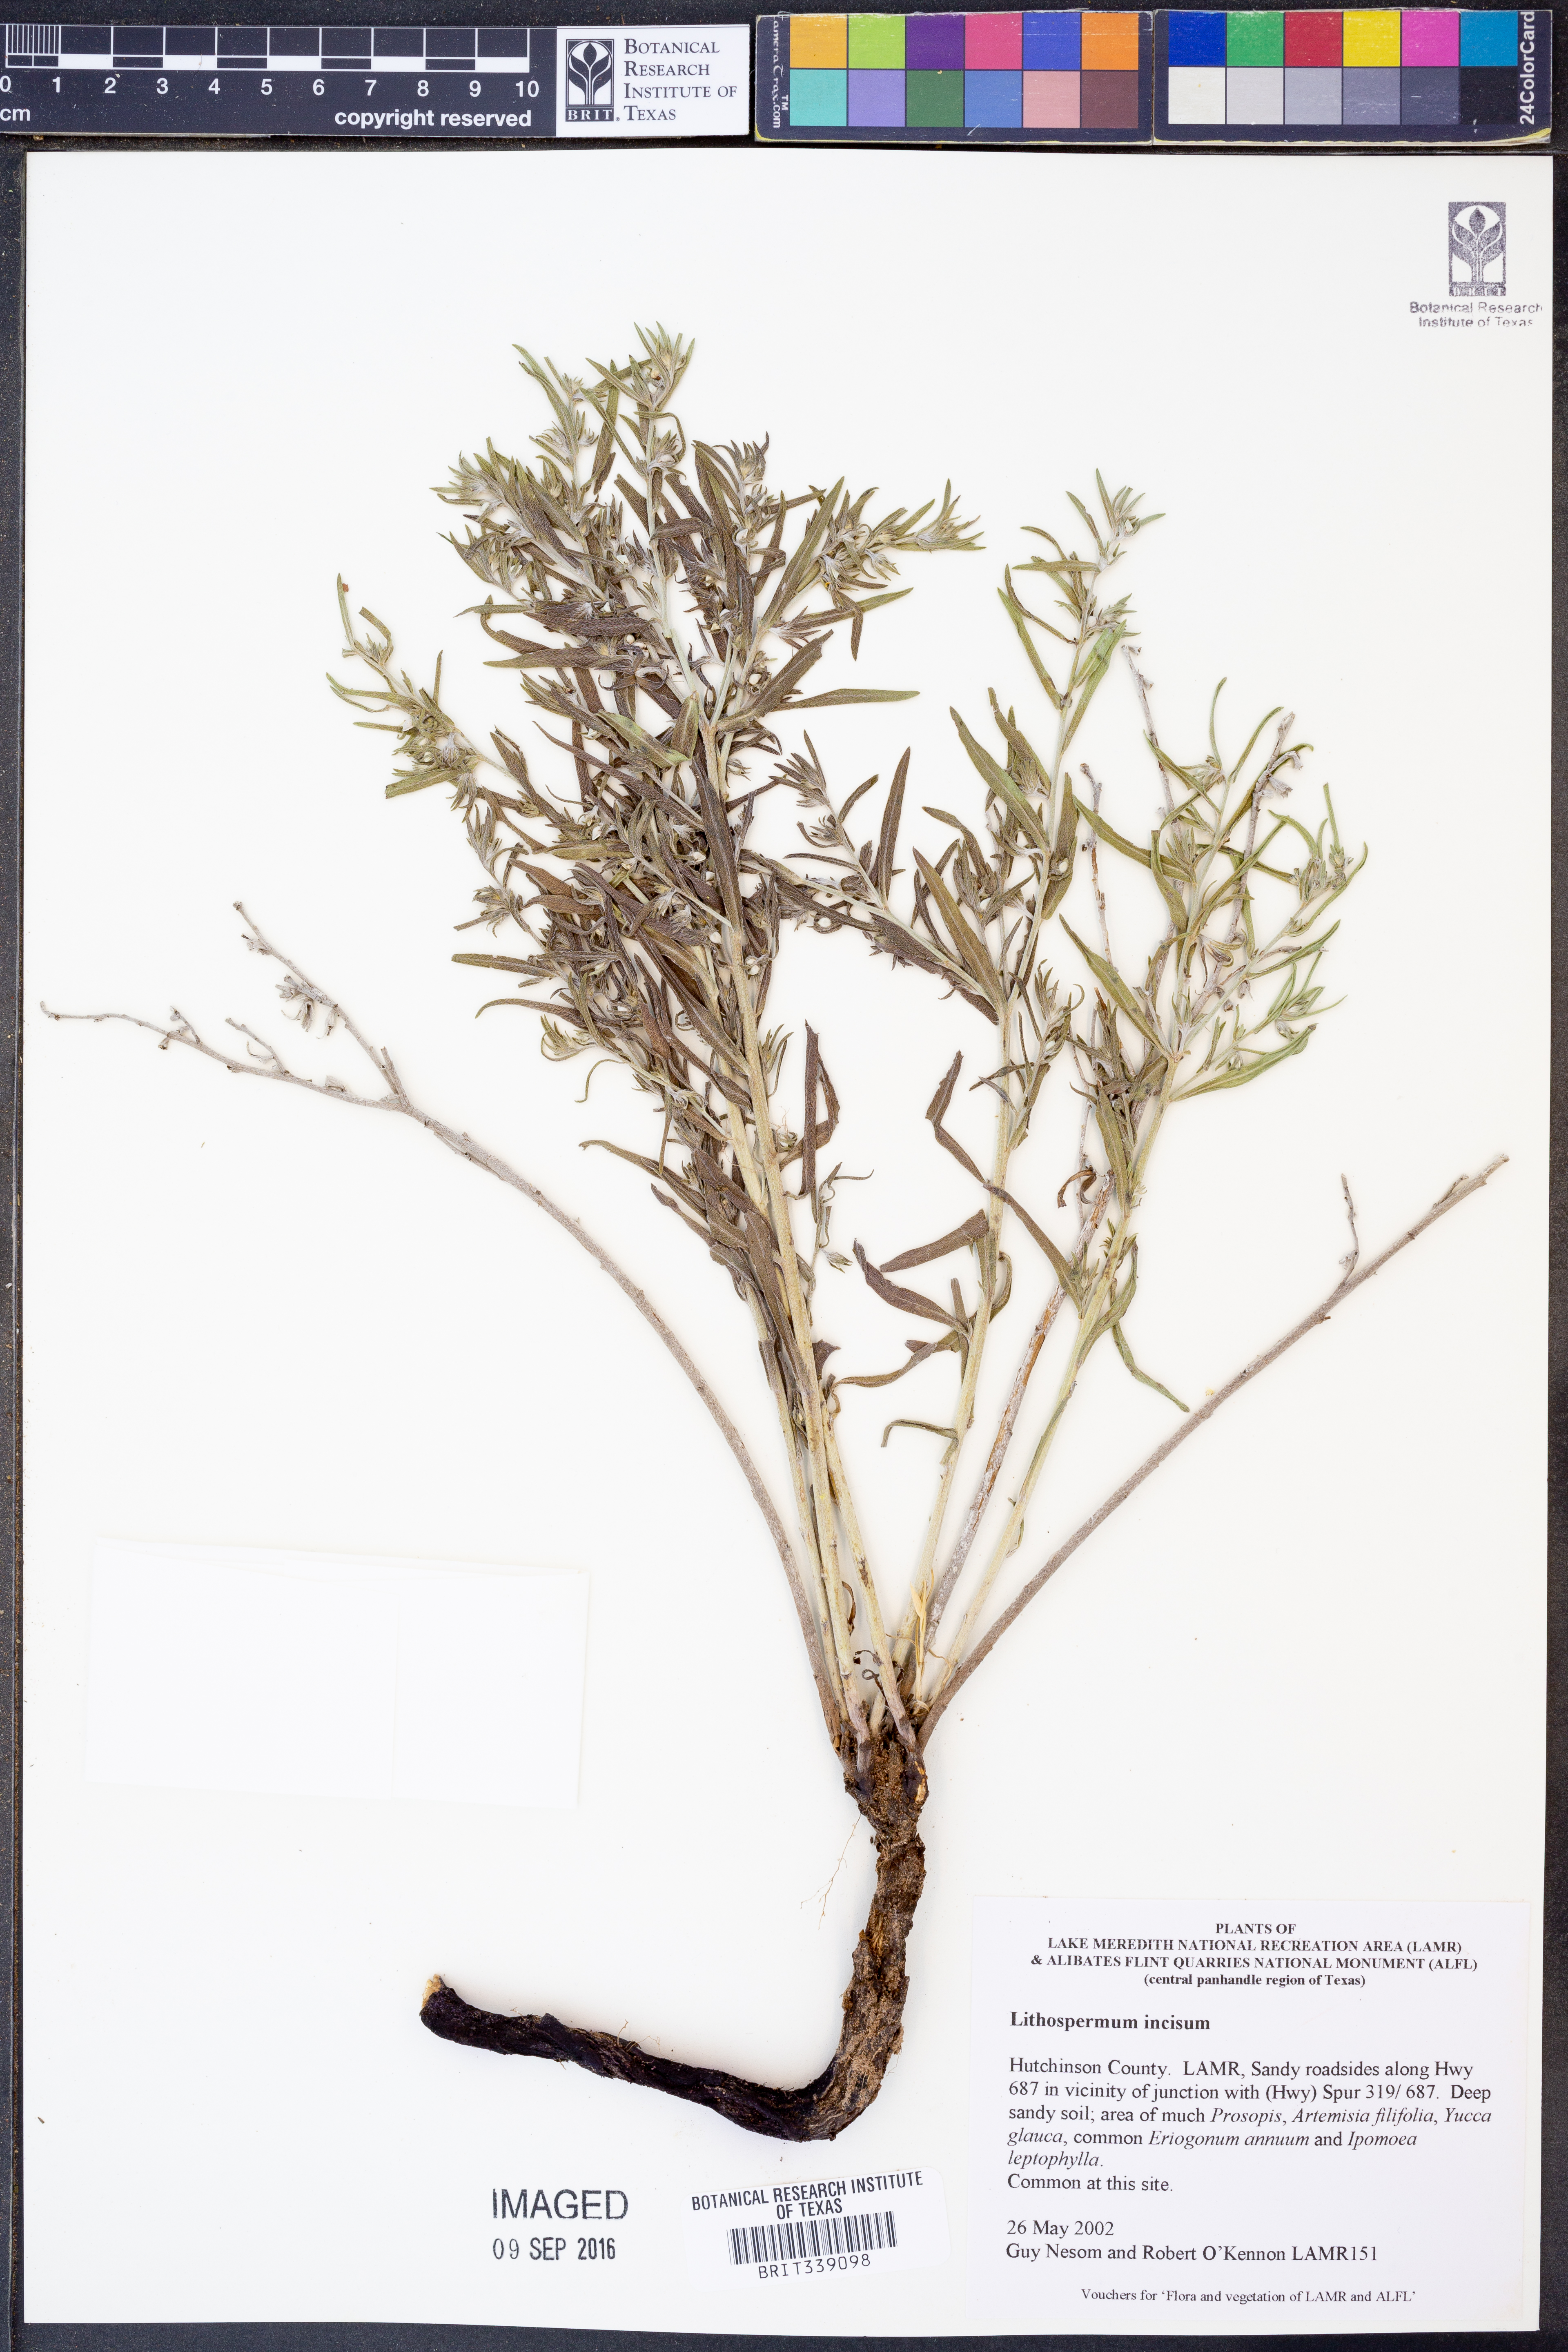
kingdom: Plantae
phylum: Tracheophyta
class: Magnoliopsida
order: Boraginales
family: Boraginaceae
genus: Lithospermum
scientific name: Lithospermum incisum
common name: Fringed gromwell
